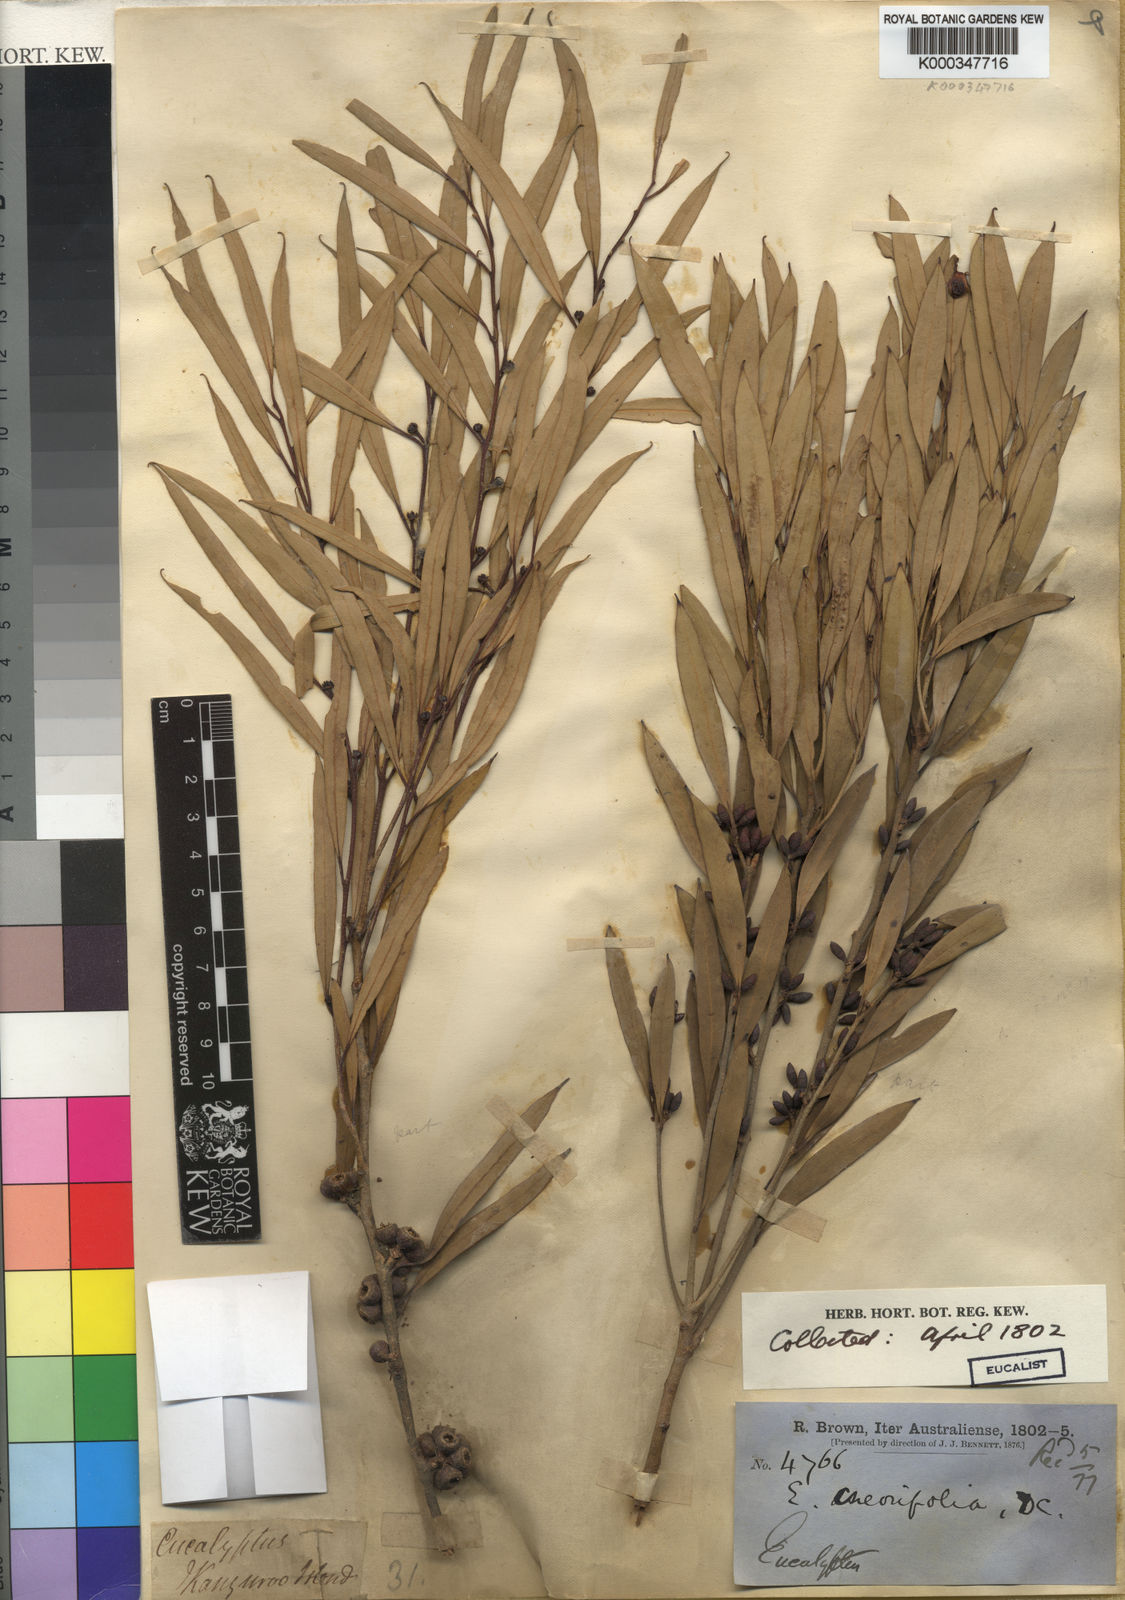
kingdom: Plantae
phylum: Tracheophyta
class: Magnoliopsida
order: Myrtales
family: Myrtaceae
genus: Eucalyptus
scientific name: Eucalyptus cneorifolia
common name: Narrow-leaf mallee
